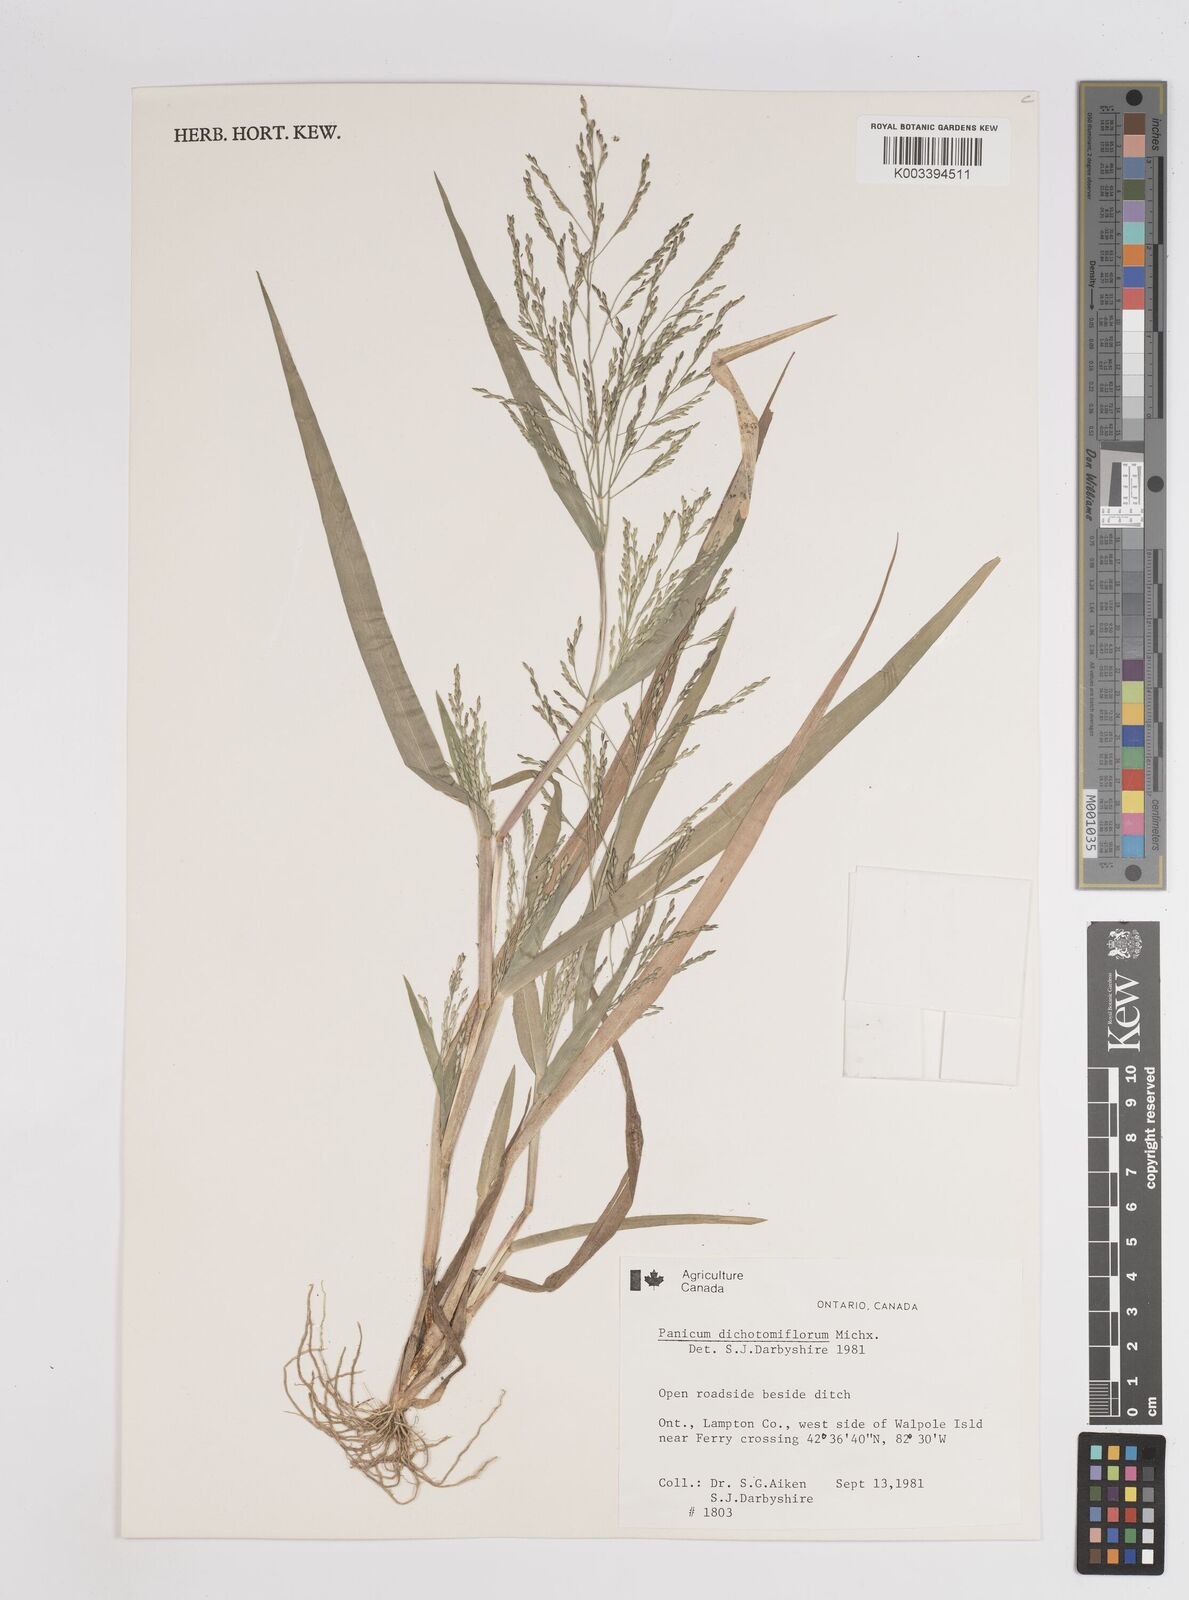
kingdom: Plantae
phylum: Tracheophyta
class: Liliopsida
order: Poales
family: Poaceae
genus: Panicum
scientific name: Panicum dichotomiflorum
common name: Autumn millet
